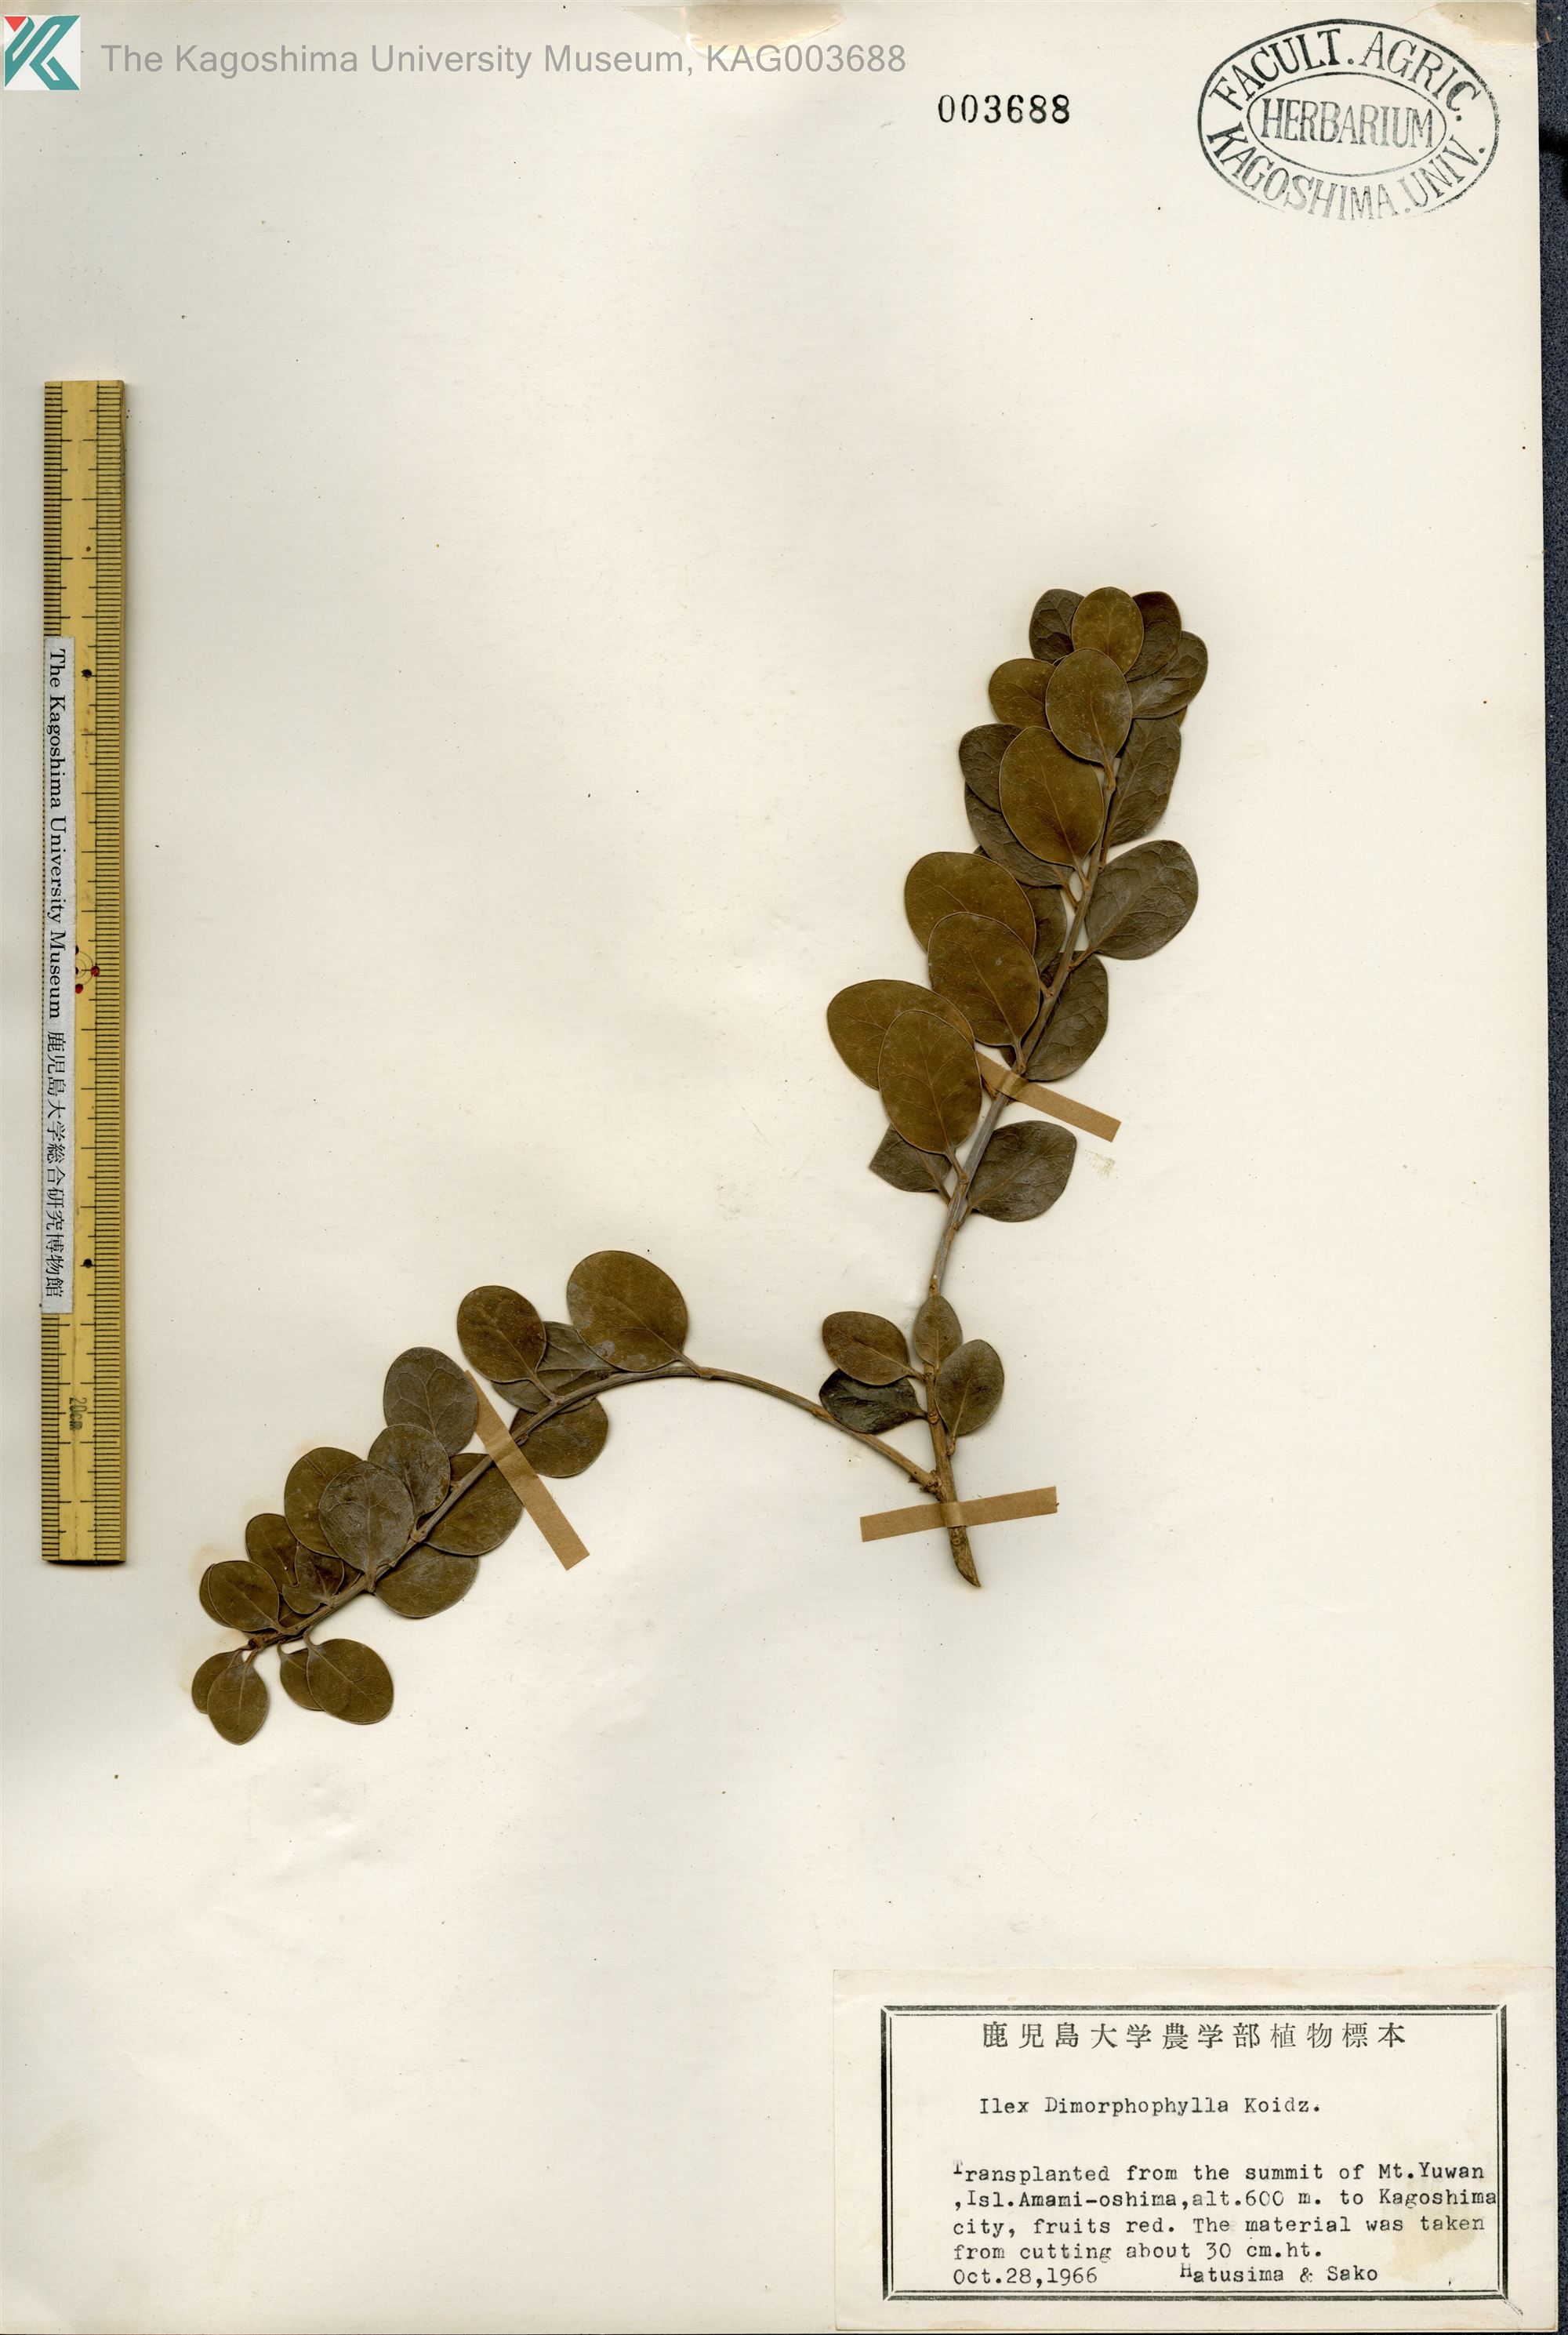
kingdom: Plantae
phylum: Tracheophyta
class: Magnoliopsida
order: Aquifoliales
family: Aquifoliaceae
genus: Ilex
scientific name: Ilex
